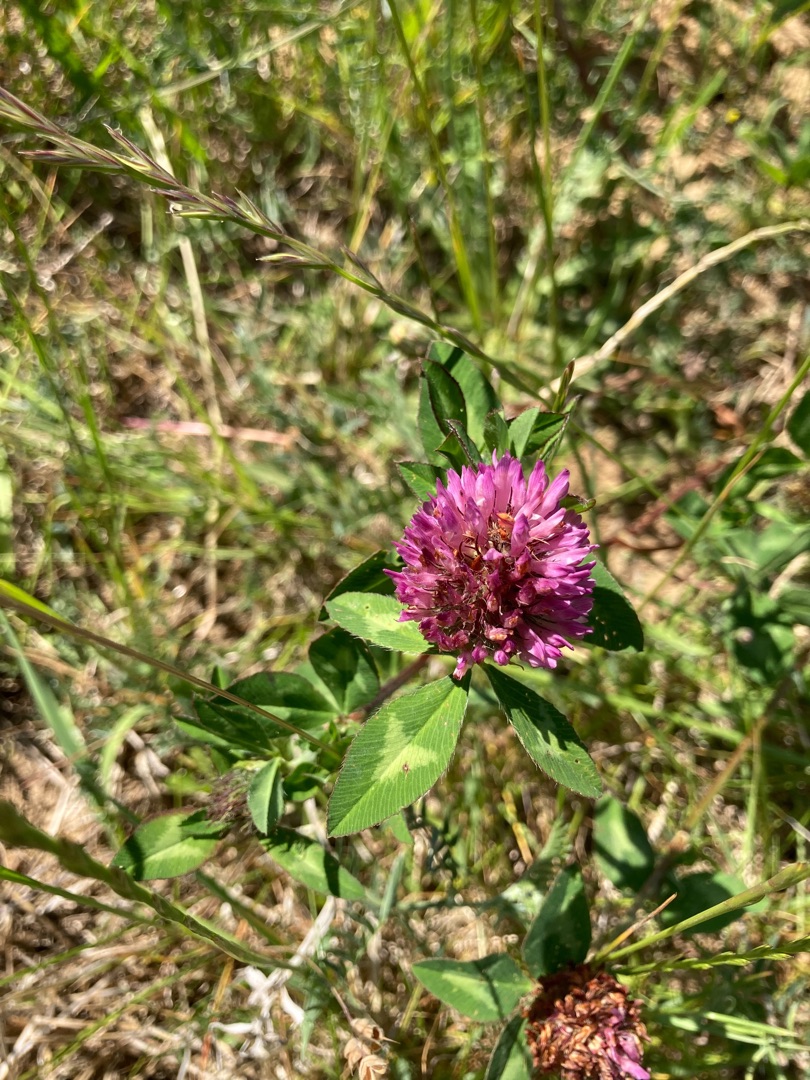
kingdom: Plantae
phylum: Tracheophyta
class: Magnoliopsida
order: Fabales
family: Fabaceae
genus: Trifolium
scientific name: Trifolium pratense
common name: Rød-kløver
